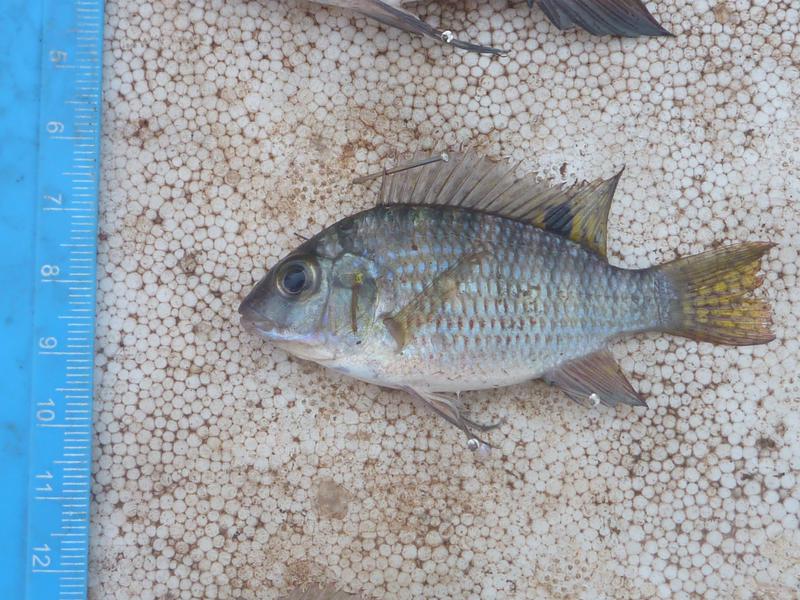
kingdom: Animalia
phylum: Chordata
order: Perciformes
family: Cichlidae
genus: Coptodon
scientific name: Coptodon rendalli
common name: Redbreast tilapia
